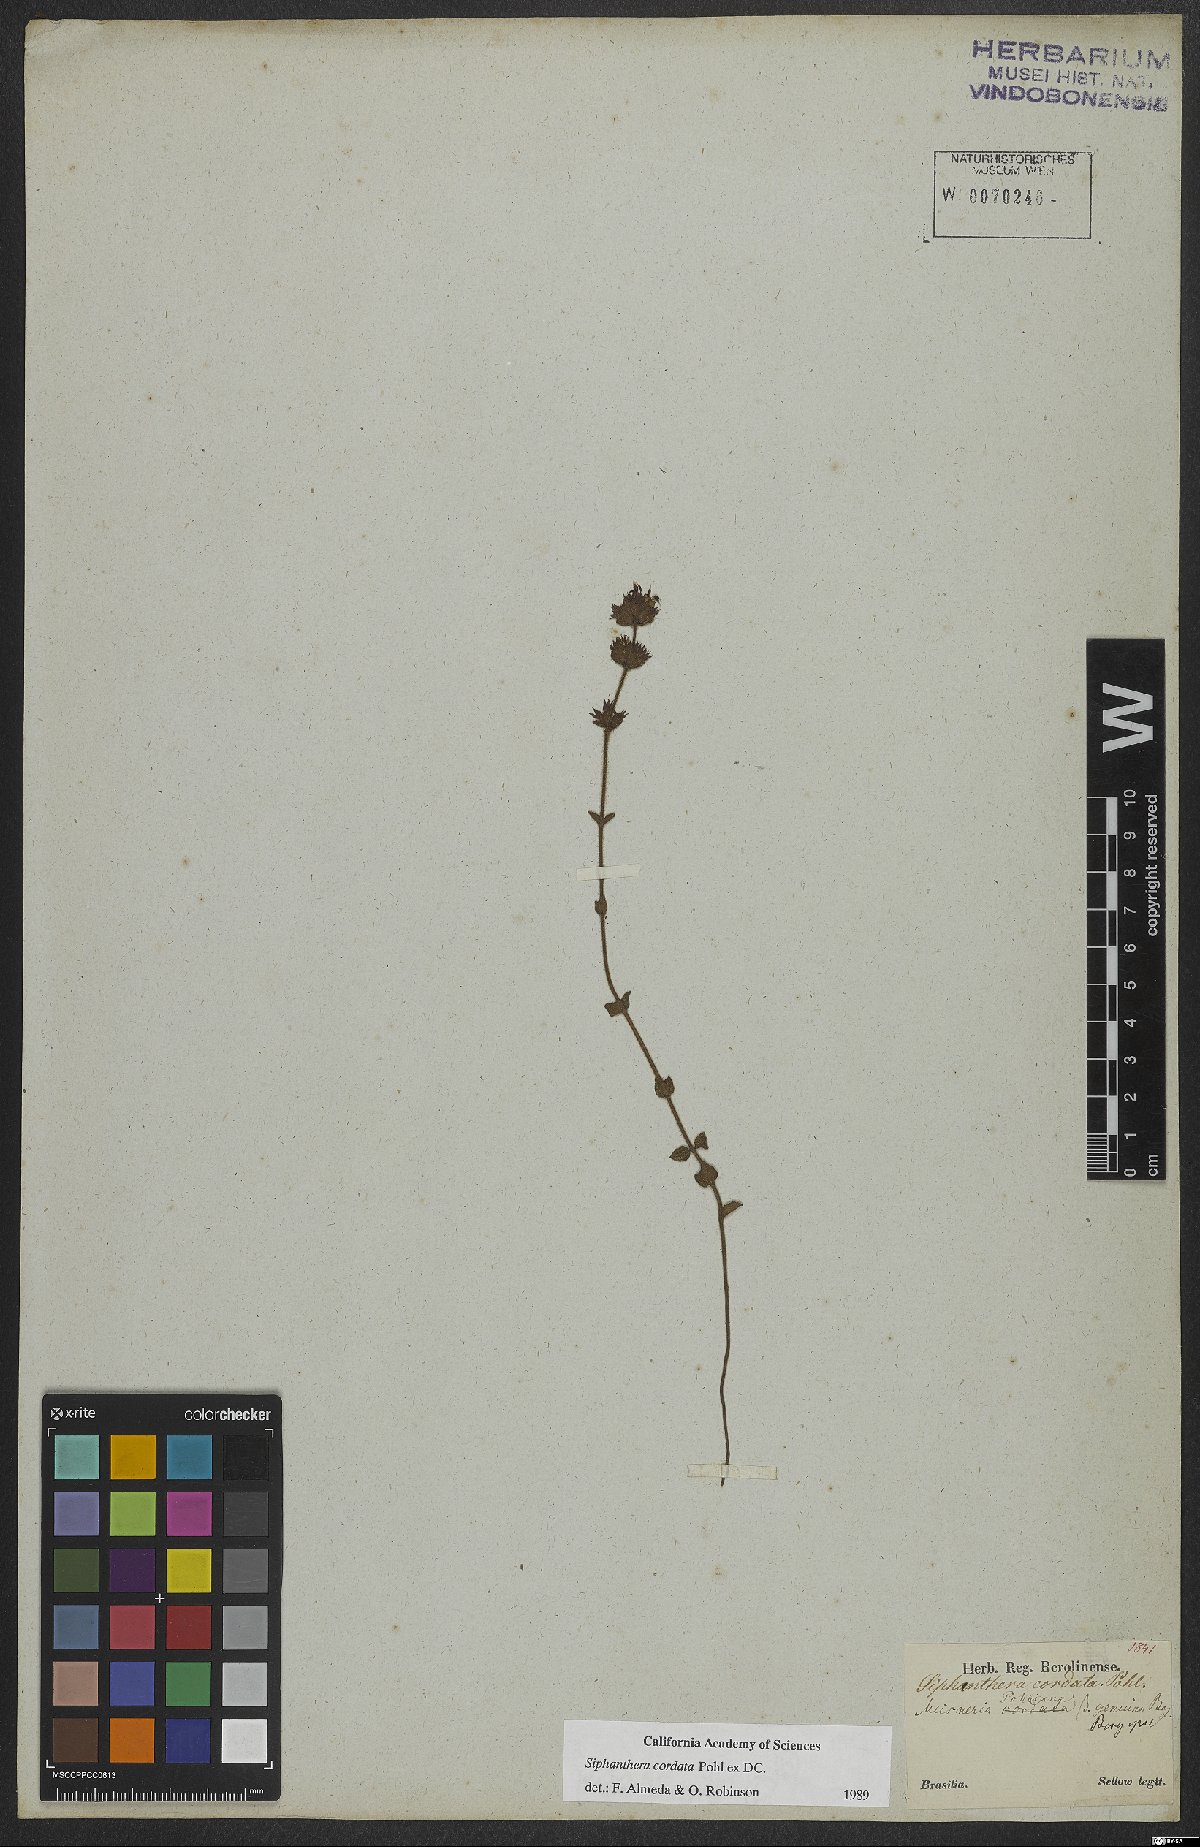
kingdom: Plantae
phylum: Tracheophyta
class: Magnoliopsida
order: Myrtales
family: Melastomataceae
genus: Siphanthera
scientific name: Siphanthera cordata
